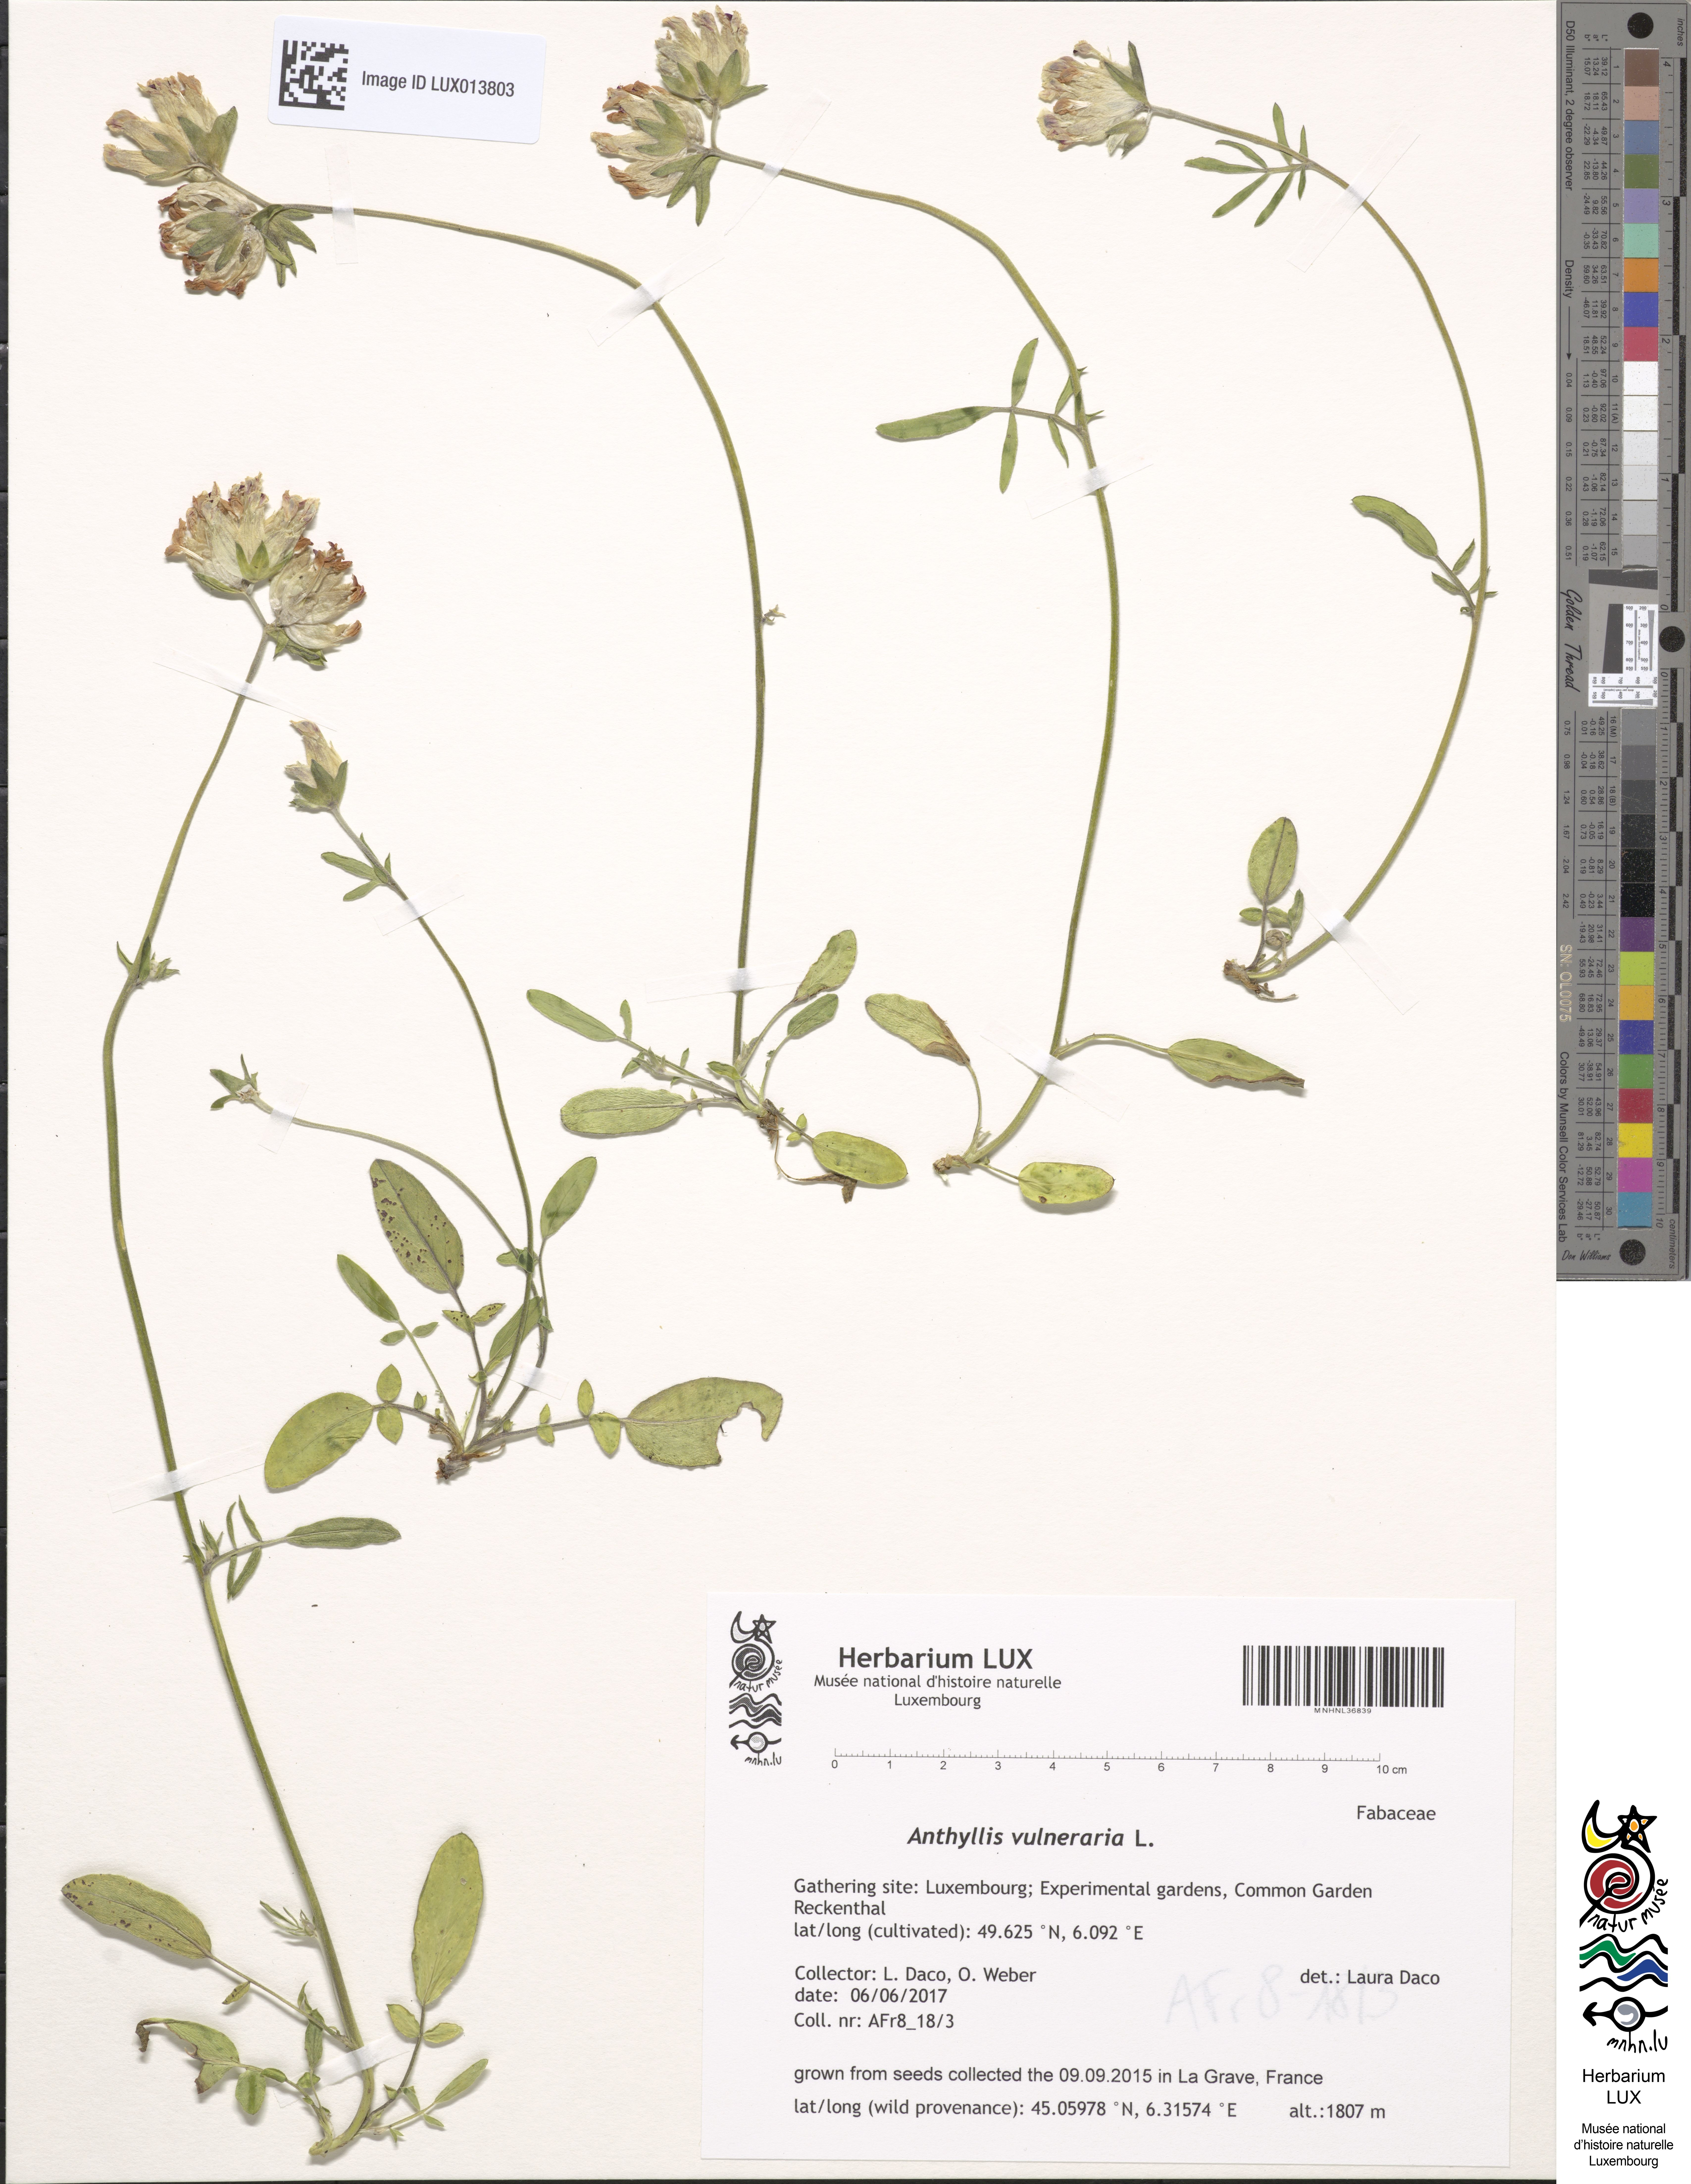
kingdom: Plantae
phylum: Tracheophyta
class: Magnoliopsida
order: Fabales
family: Fabaceae
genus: Anthyllis
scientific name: Anthyllis vulneraria
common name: Kidney vetch
